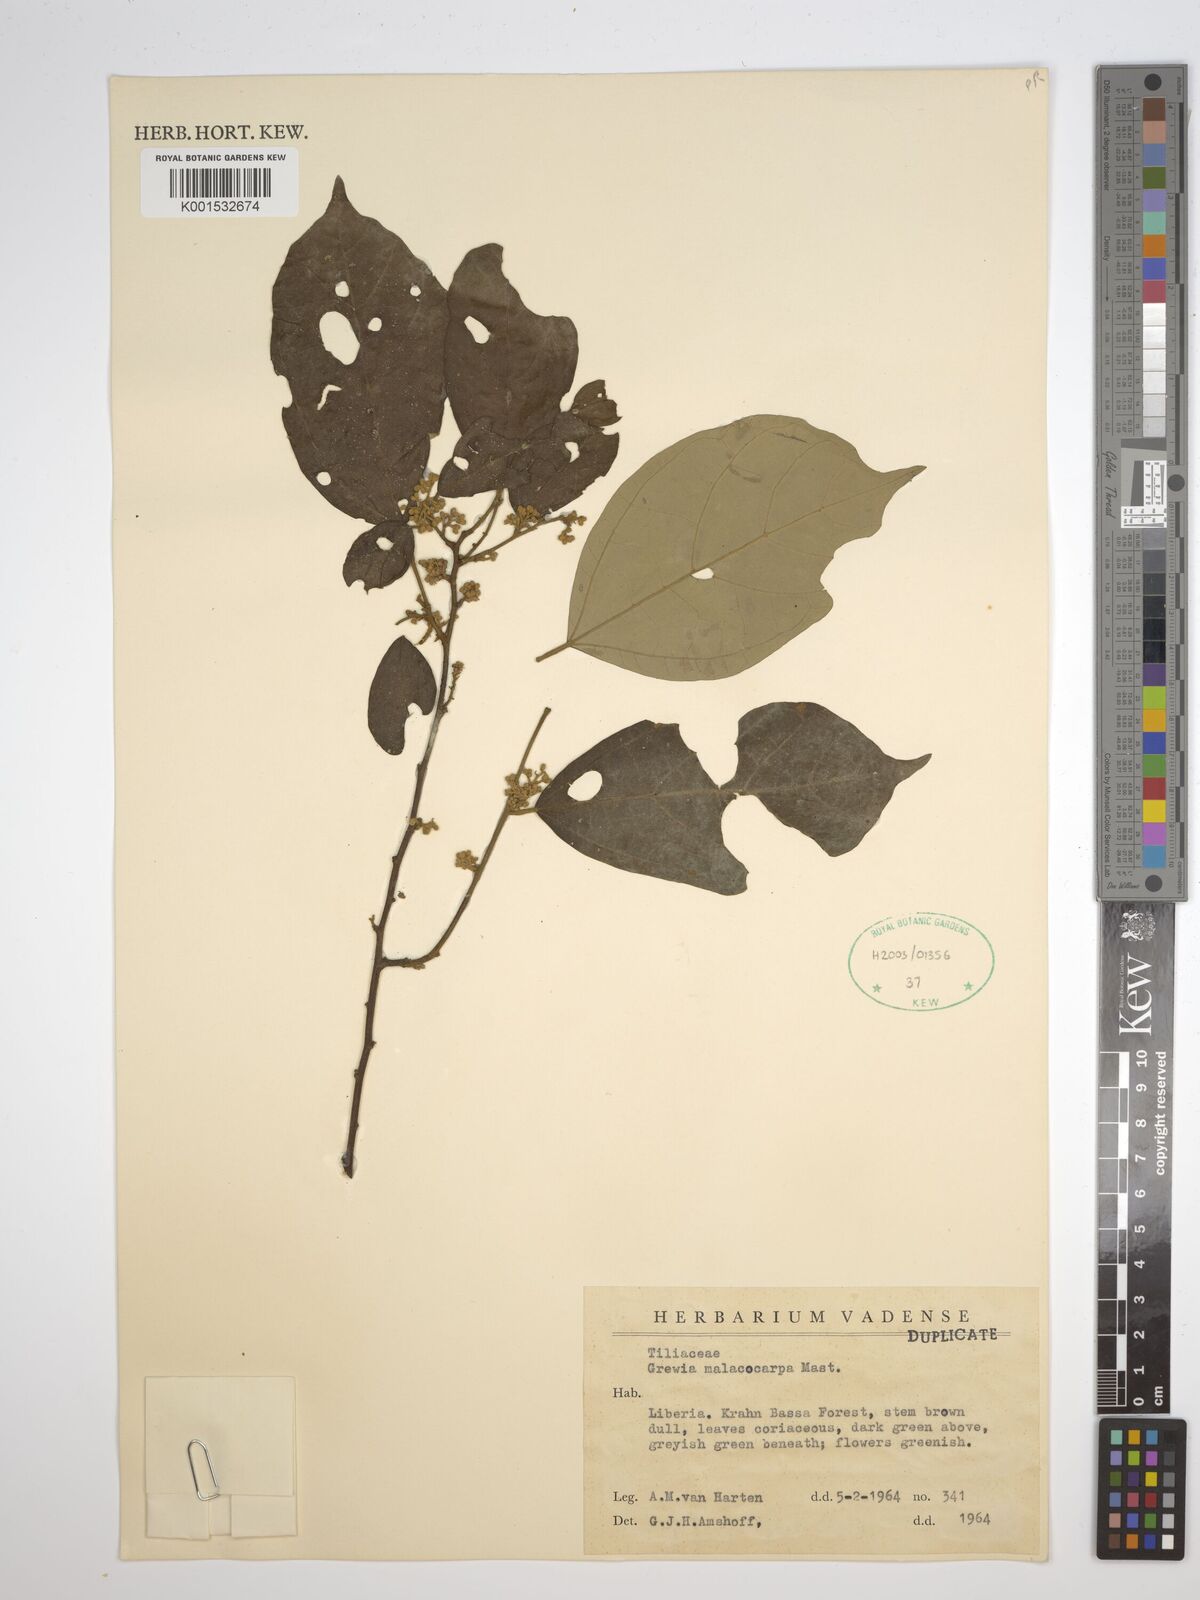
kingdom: Plantae
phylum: Tracheophyta
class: Magnoliopsida
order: Malvales
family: Malvaceae
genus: Microcos
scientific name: Microcos malacocarpa
